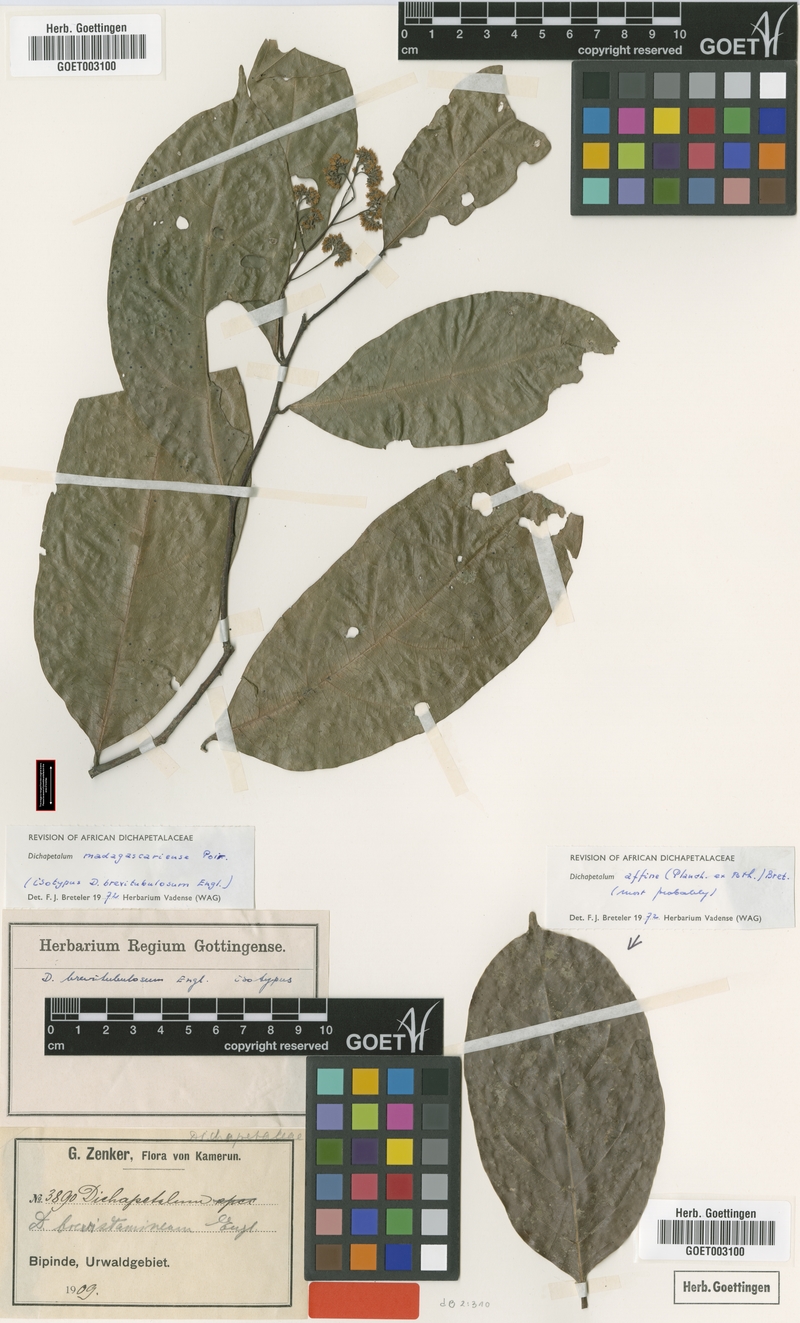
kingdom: Plantae
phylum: Tracheophyta
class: Magnoliopsida
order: Malpighiales
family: Dichapetalaceae
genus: Dichapetalum
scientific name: Dichapetalum madagascariense
